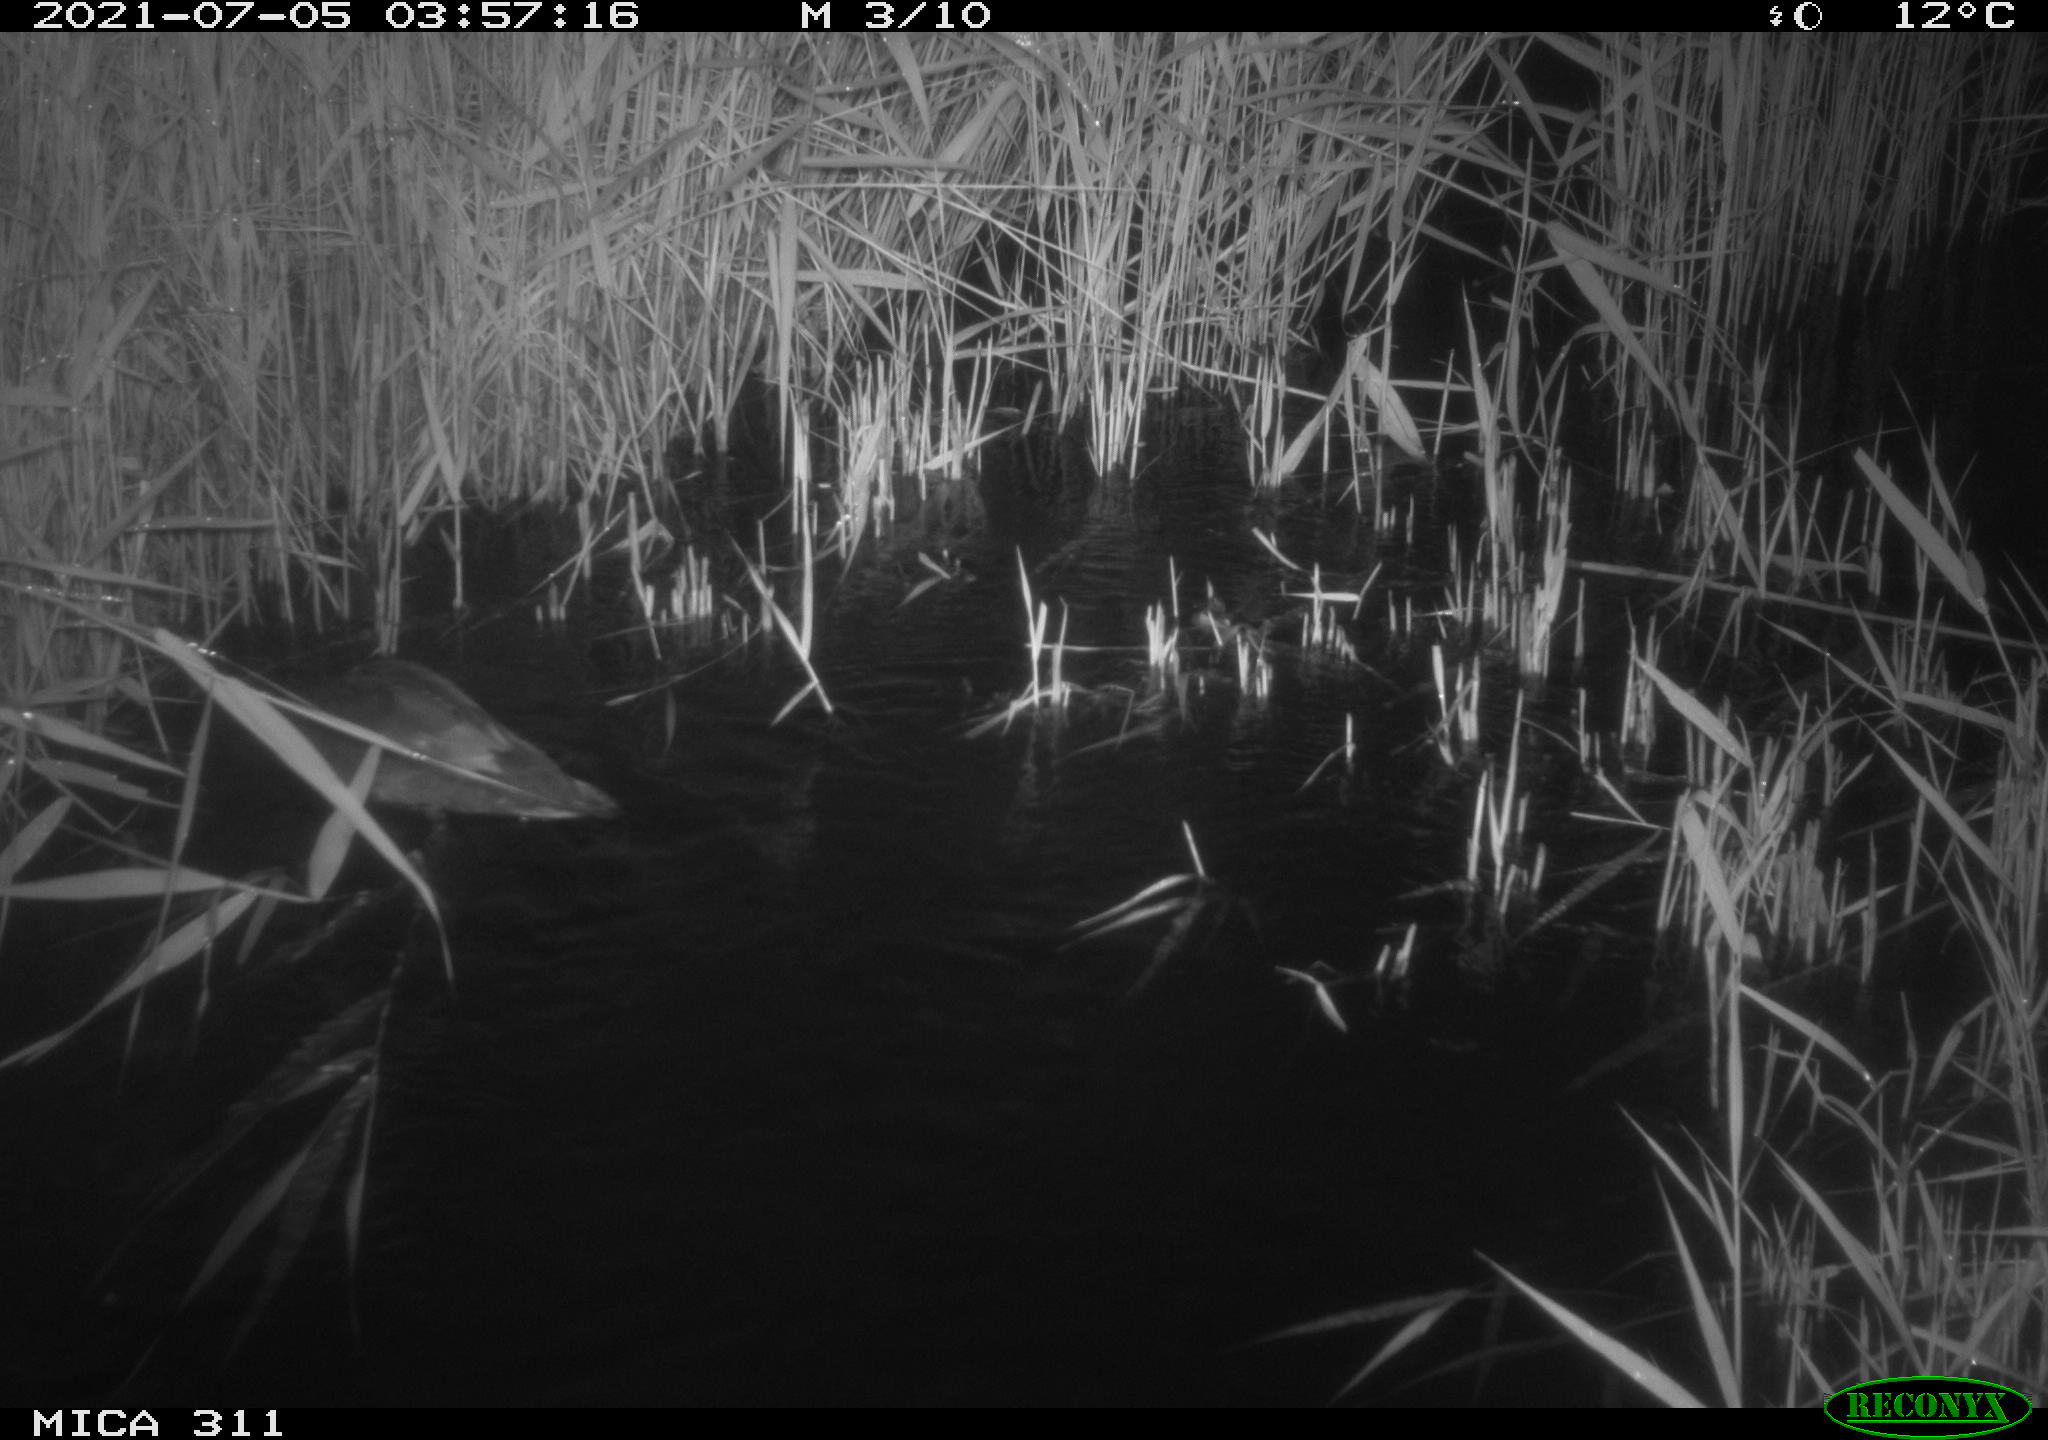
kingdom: Animalia
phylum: Chordata
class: Aves
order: Anseriformes
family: Anatidae
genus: Anas
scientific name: Anas
